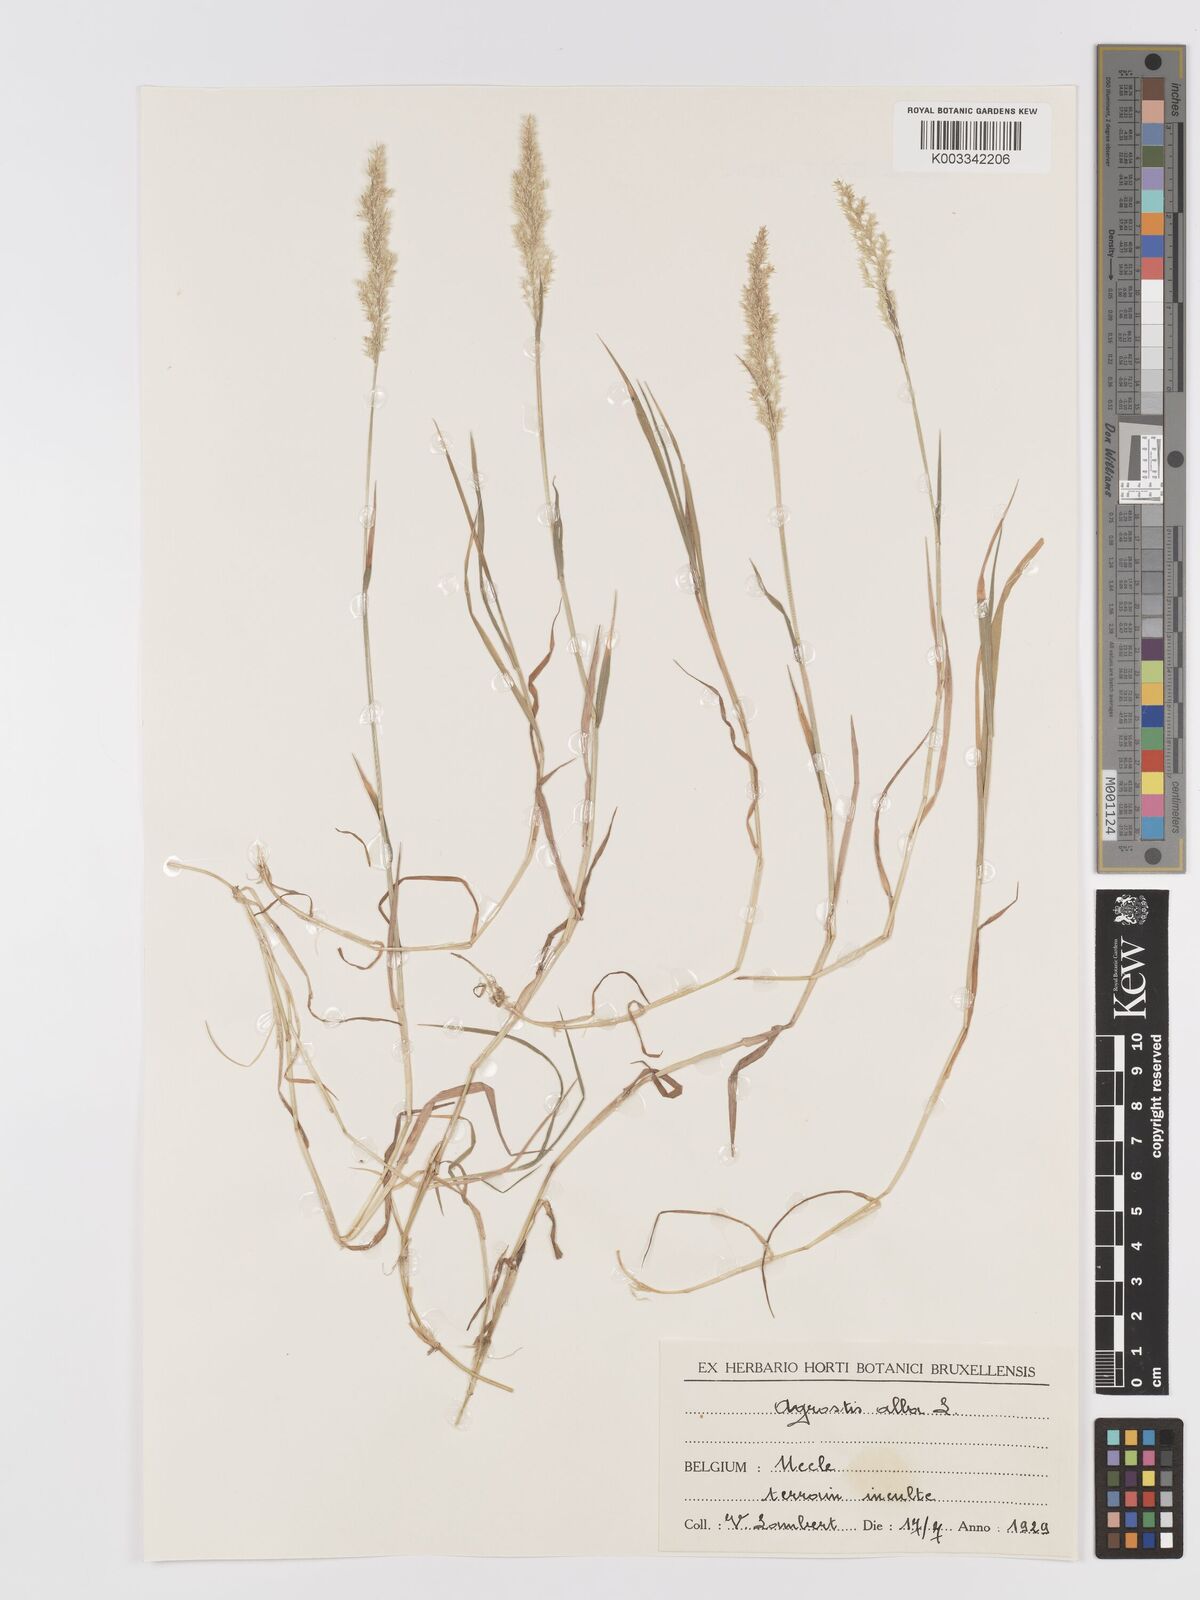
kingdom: Plantae
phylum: Tracheophyta
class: Liliopsida
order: Poales
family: Poaceae
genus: Agrostis
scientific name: Agrostis stolonifera
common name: Creeping bentgrass
